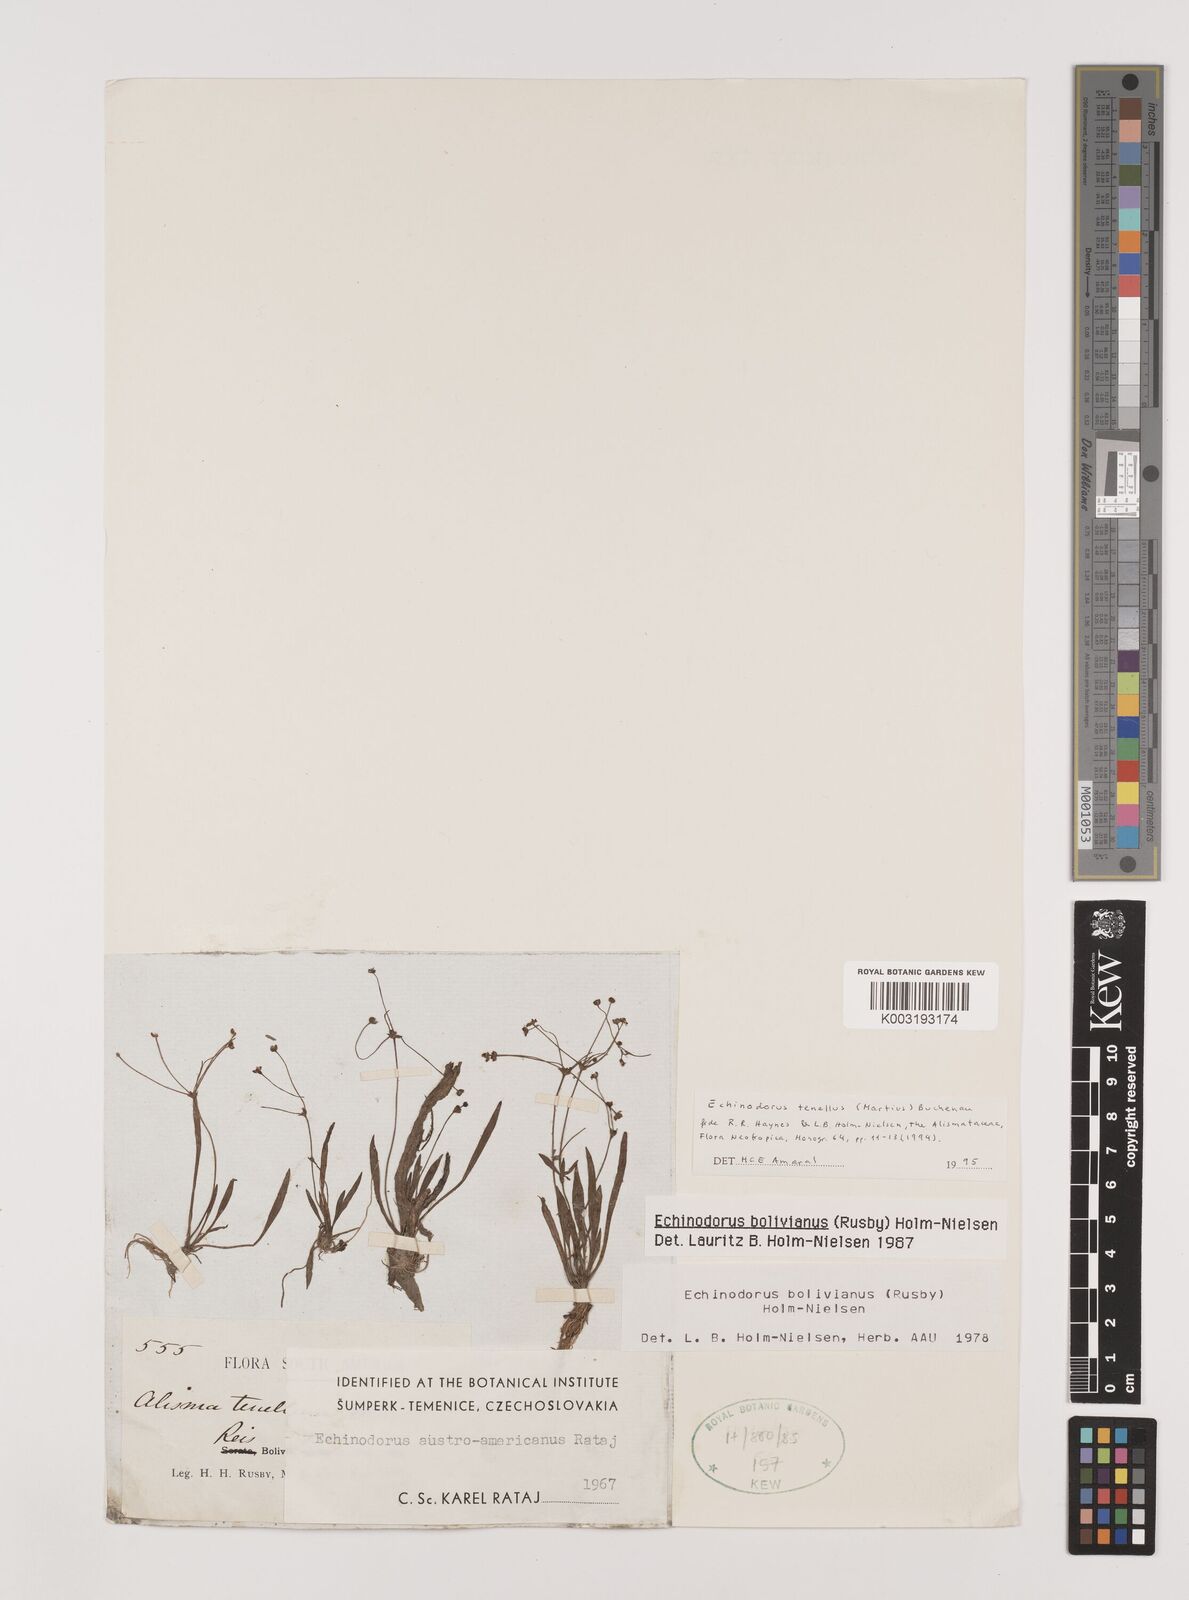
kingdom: Plantae
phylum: Tracheophyta
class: Liliopsida
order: Alismatales
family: Alismataceae
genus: Helanthium
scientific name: Helanthium tenellum
